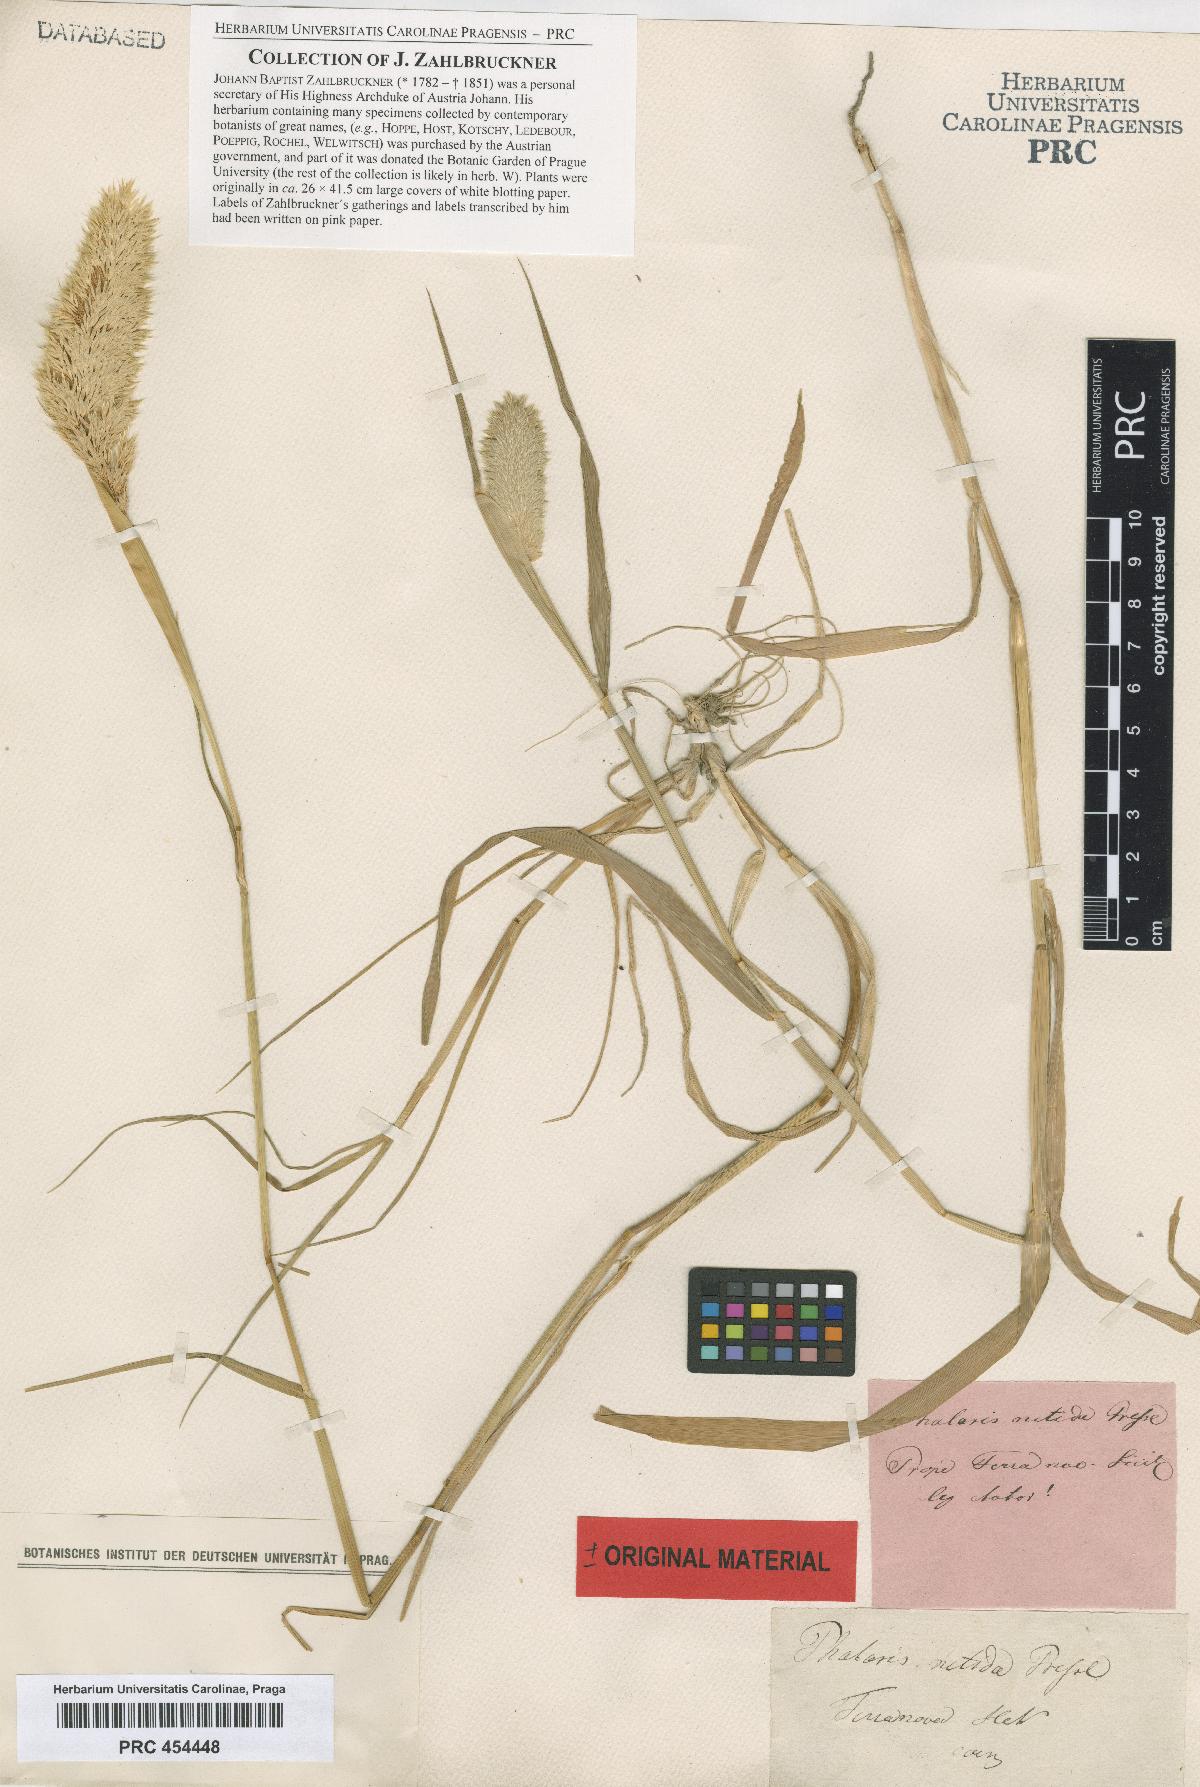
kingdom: Plantae
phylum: Tracheophyta
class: Liliopsida
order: Poales
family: Poaceae
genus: Phalaris
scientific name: Phalaris brachystachys
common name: Confused canary-grass
